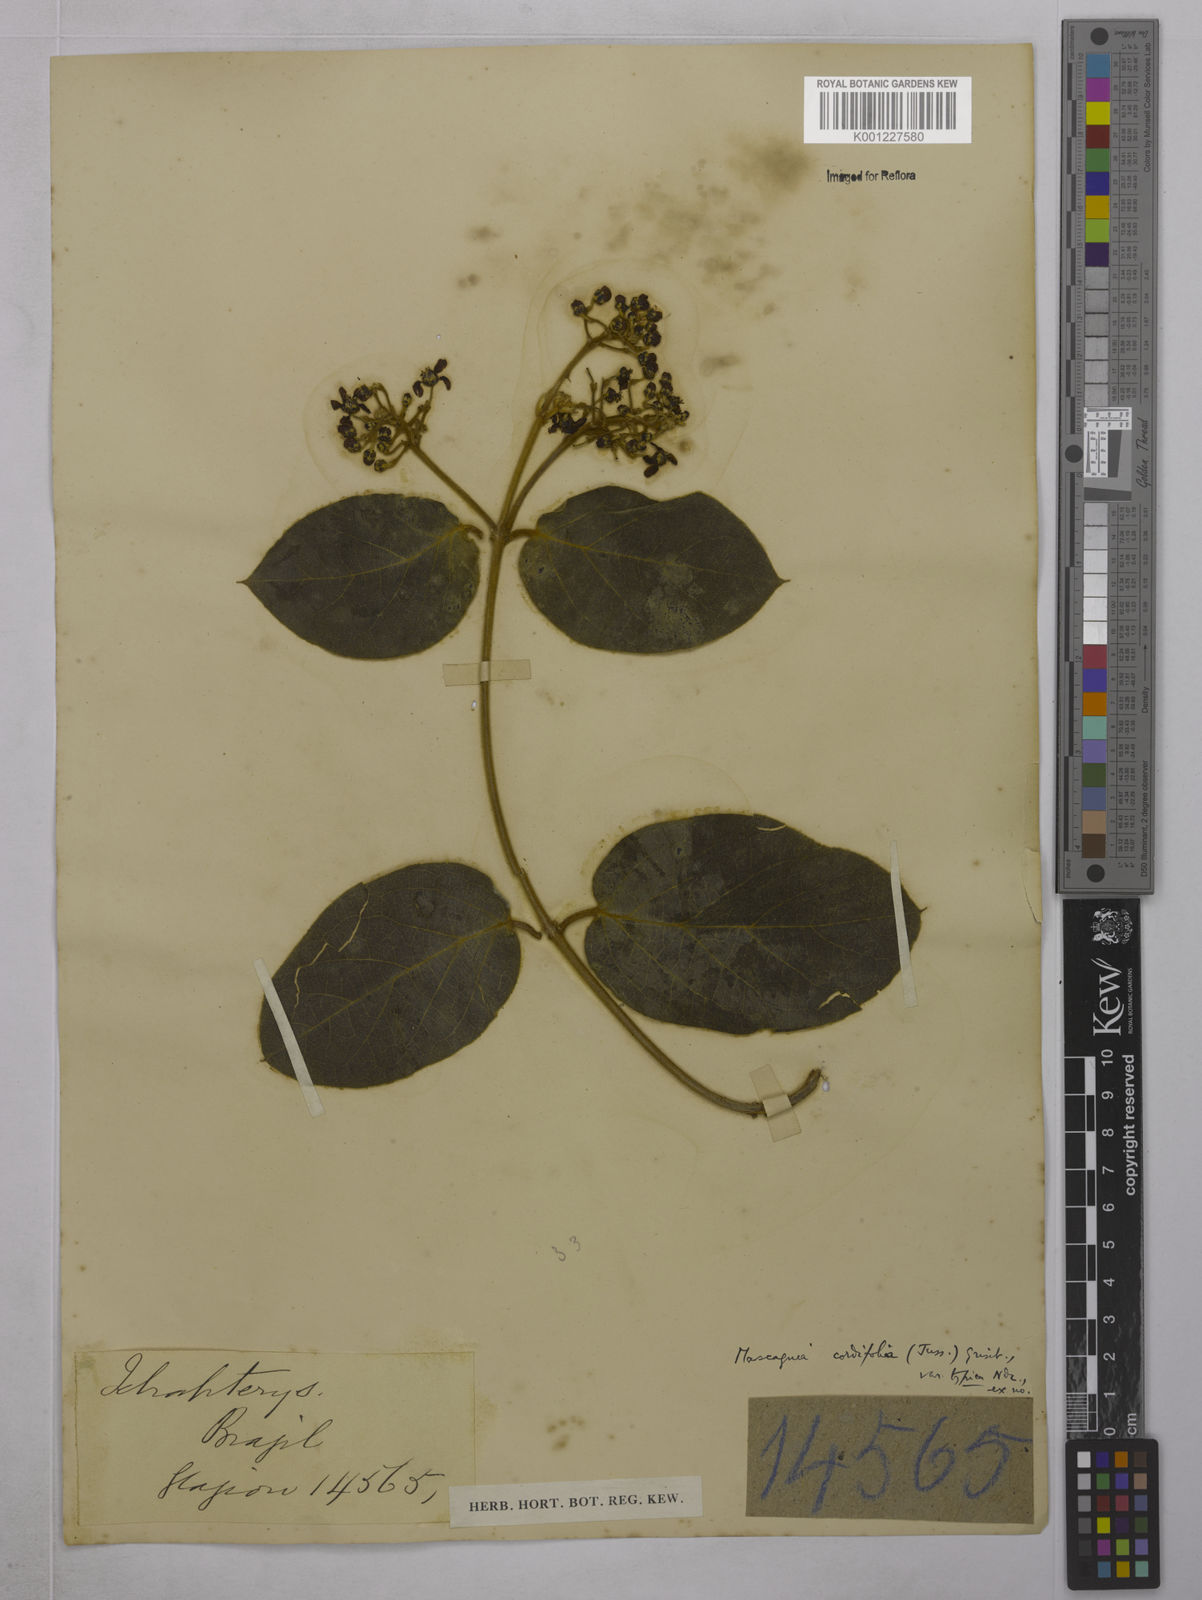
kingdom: Plantae
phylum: Tracheophyta
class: Magnoliopsida
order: Malpighiales
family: Malpighiaceae
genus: Mascagnia
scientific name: Mascagnia cordifolia
